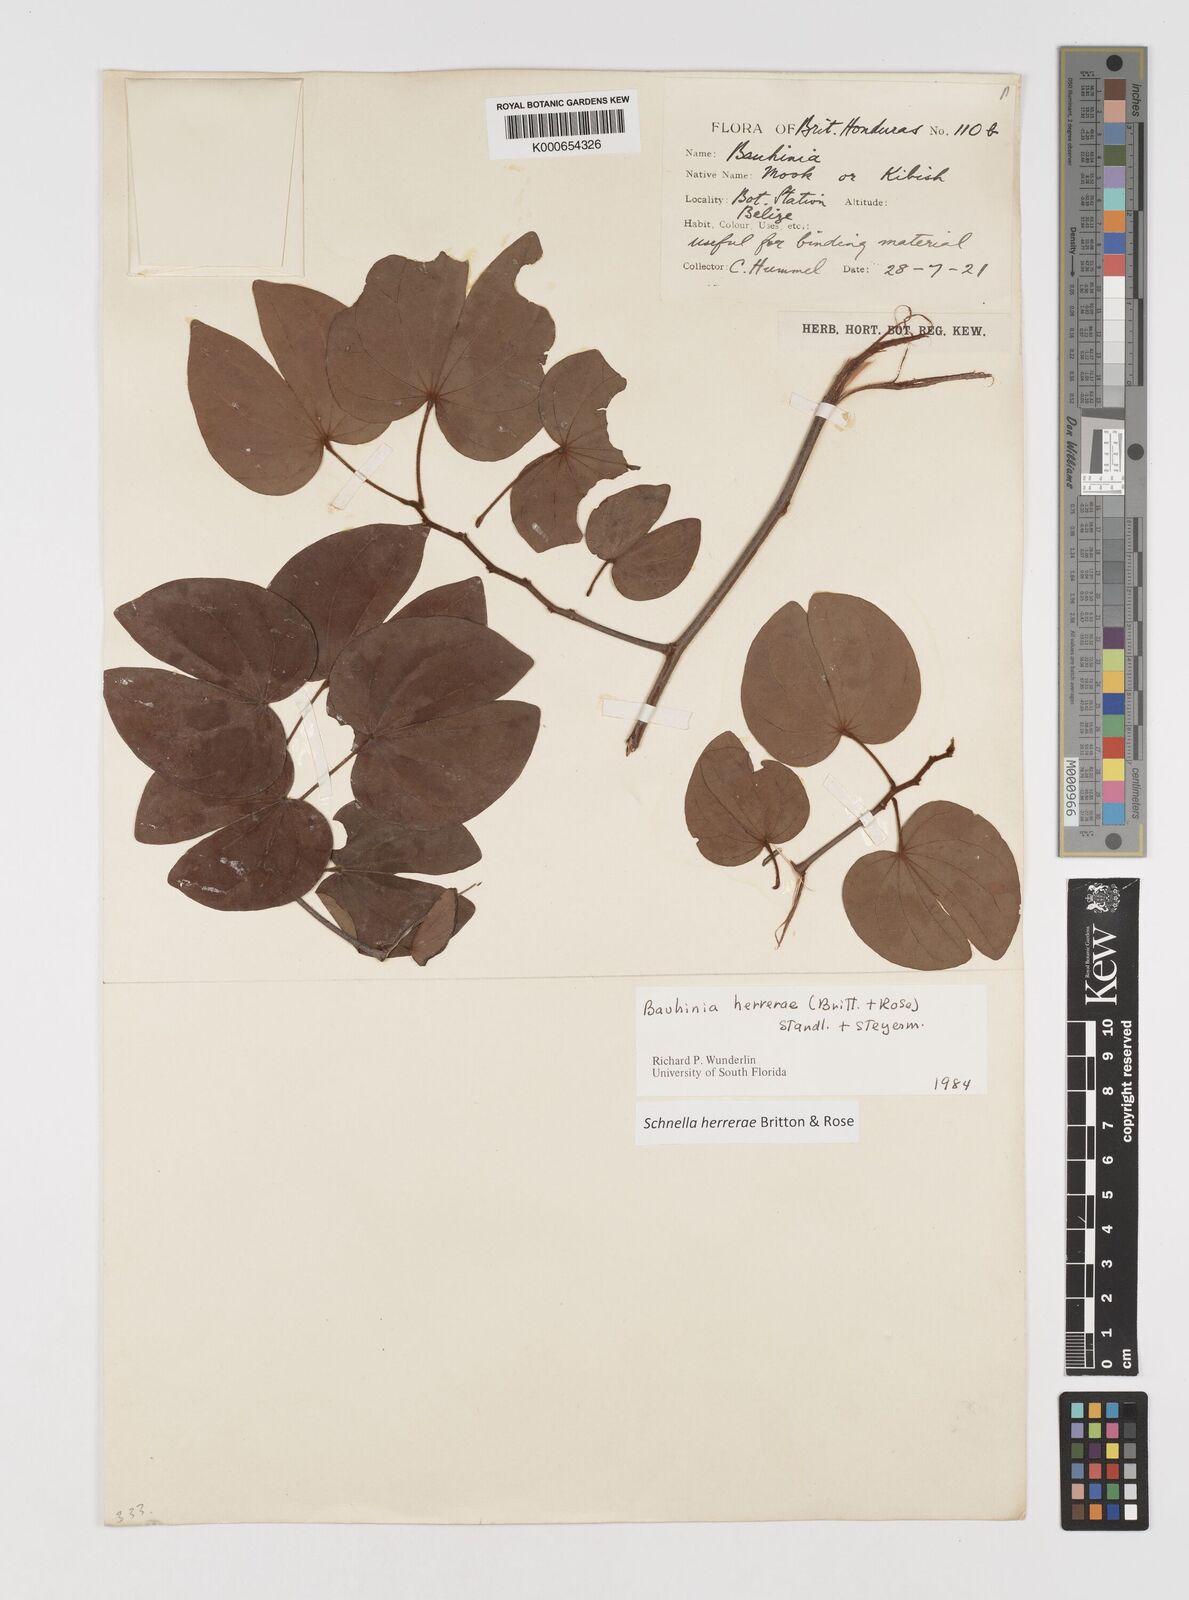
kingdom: Plantae
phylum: Tracheophyta
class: Magnoliopsida
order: Fabales
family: Fabaceae
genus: Schnella
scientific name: Schnella herrerae
